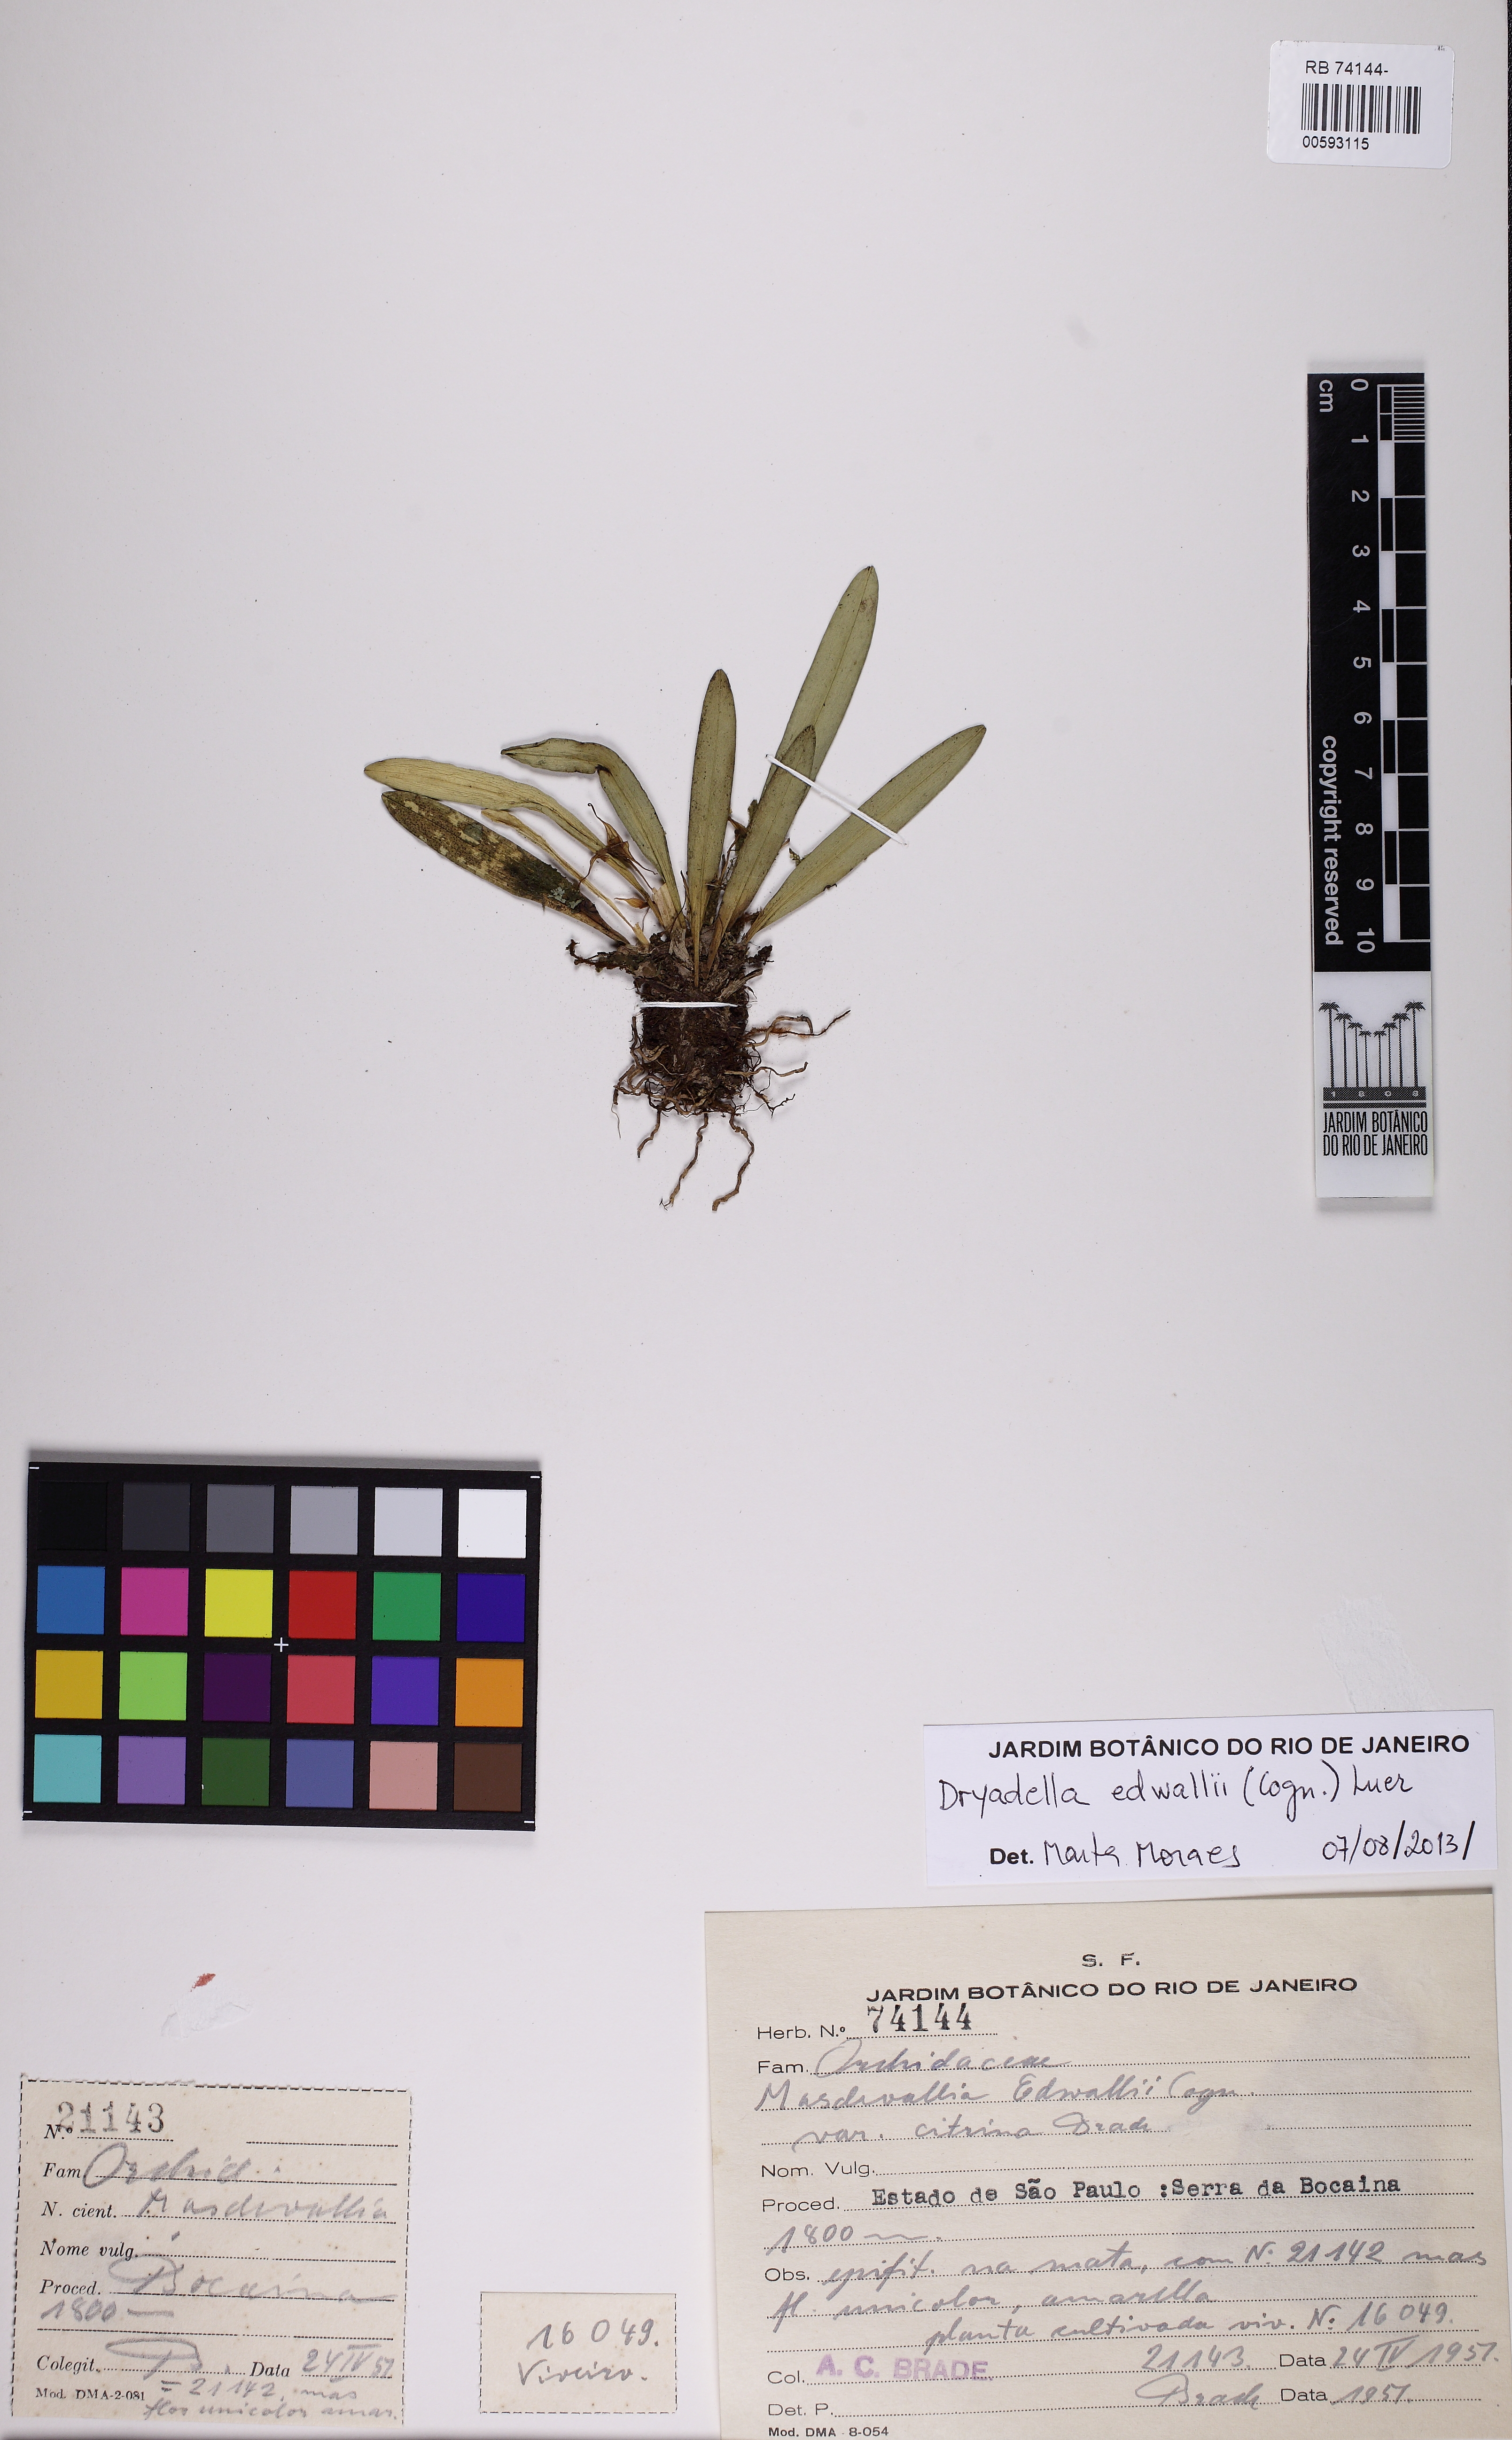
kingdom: Plantae
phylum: Tracheophyta
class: Liliopsida
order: Asparagales
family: Orchidaceae
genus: Dryadella
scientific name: Dryadella edwallii
